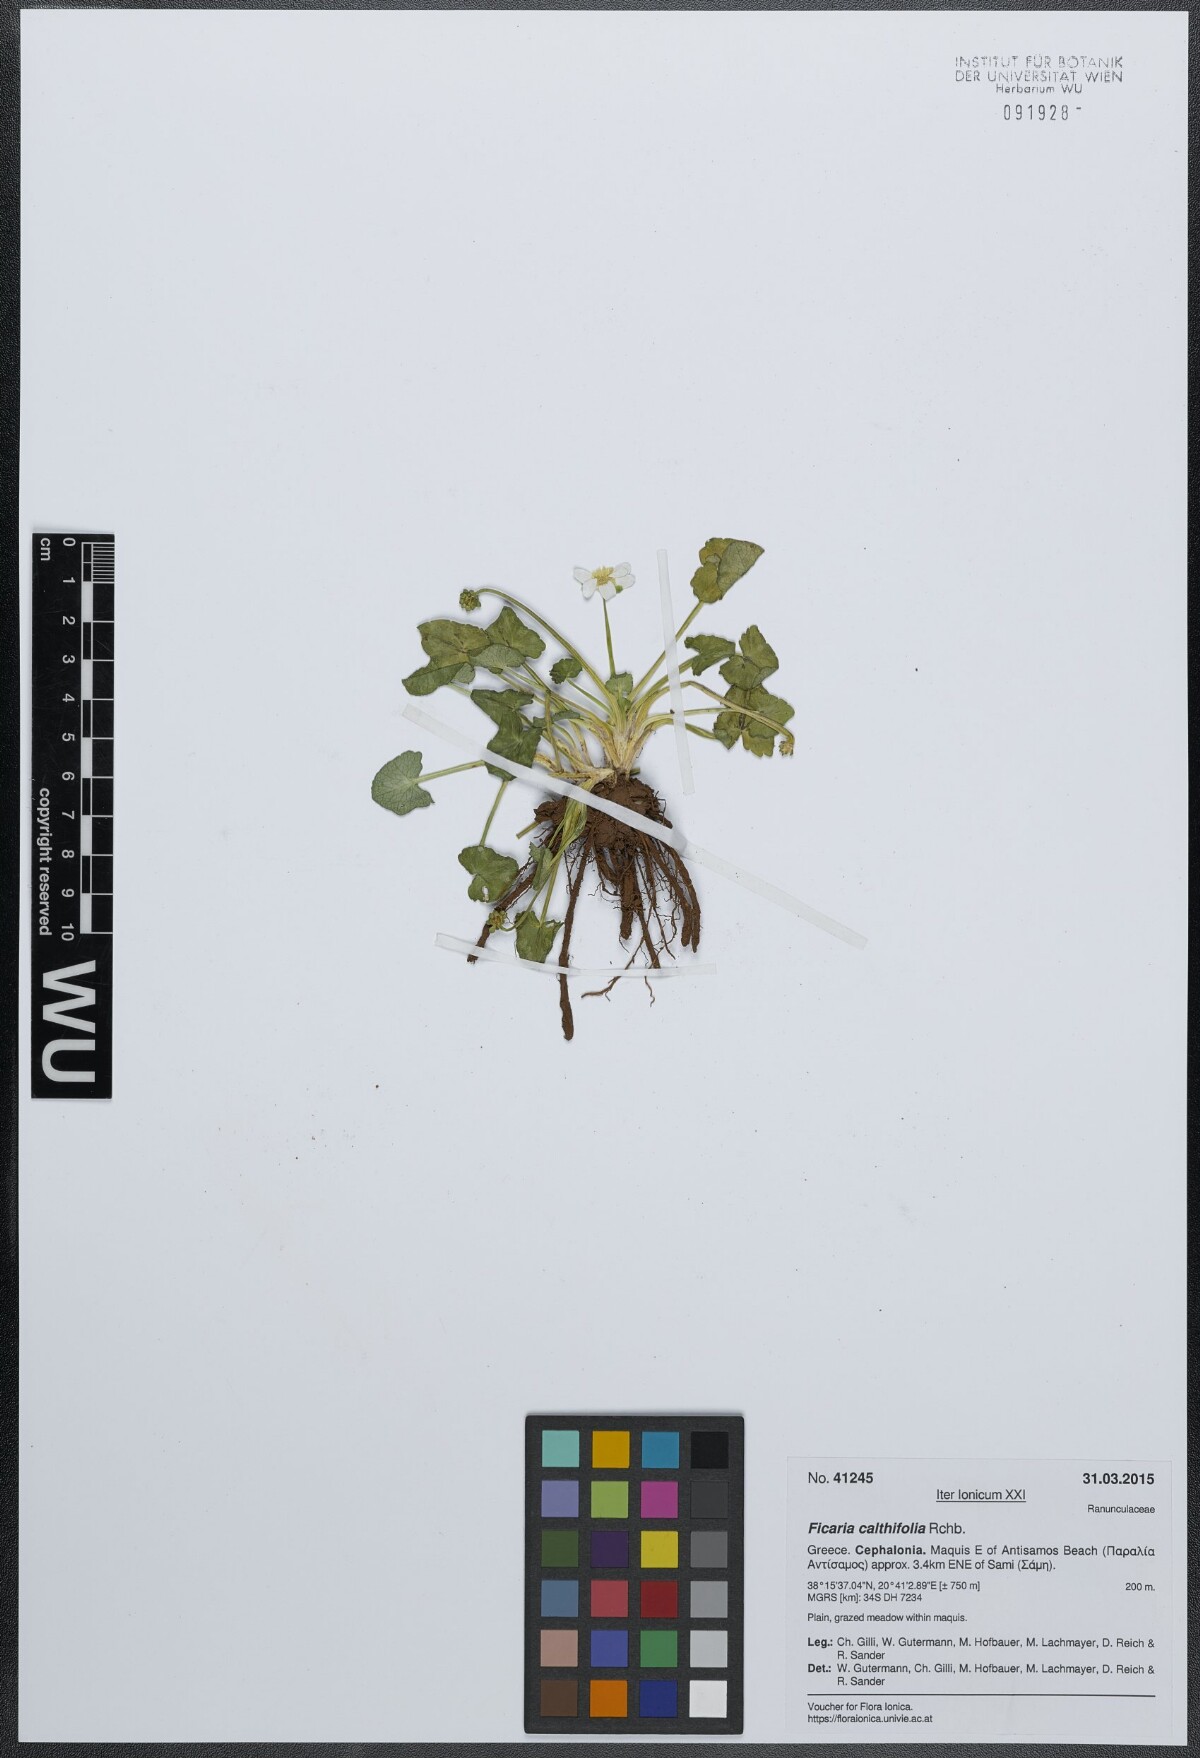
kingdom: Plantae
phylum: Tracheophyta
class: Magnoliopsida
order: Ranunculales
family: Ranunculaceae
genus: Ficaria
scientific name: Ficaria calthifolia
